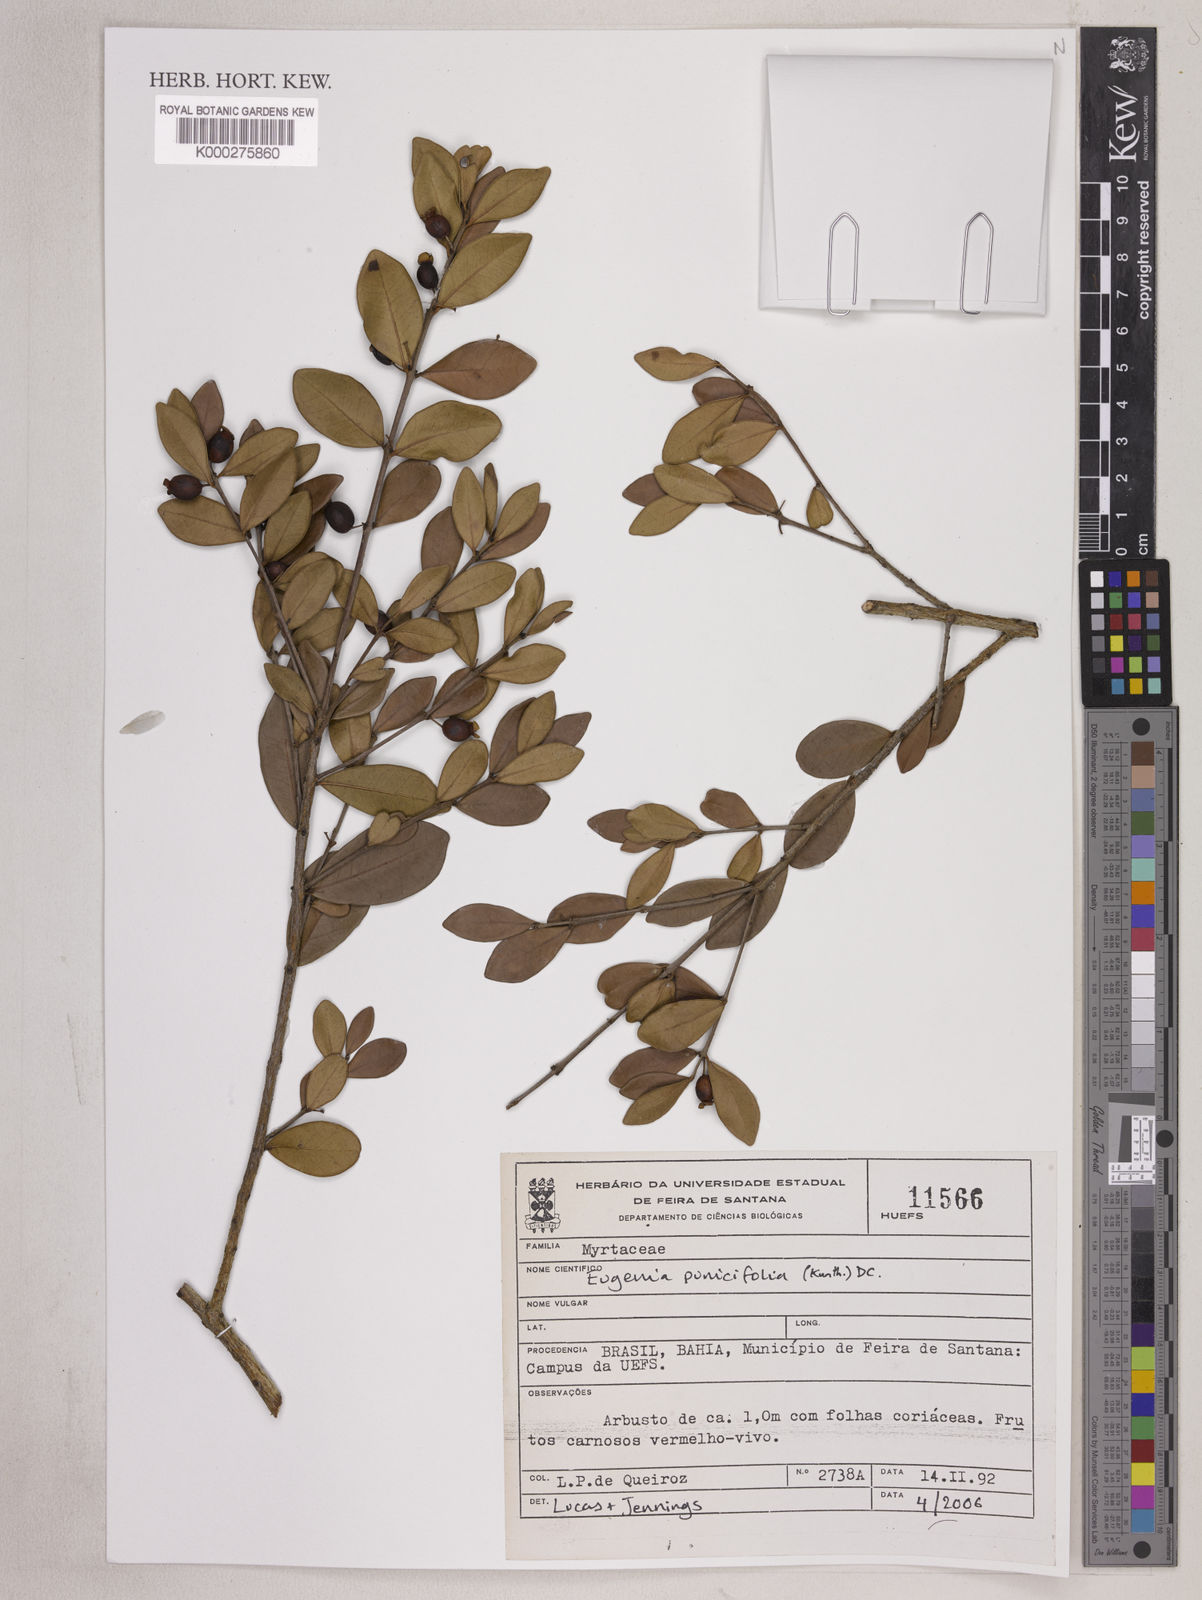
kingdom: Plantae
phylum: Tracheophyta
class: Magnoliopsida
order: Myrtales
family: Myrtaceae
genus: Eugenia
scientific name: Eugenia punicifolia
